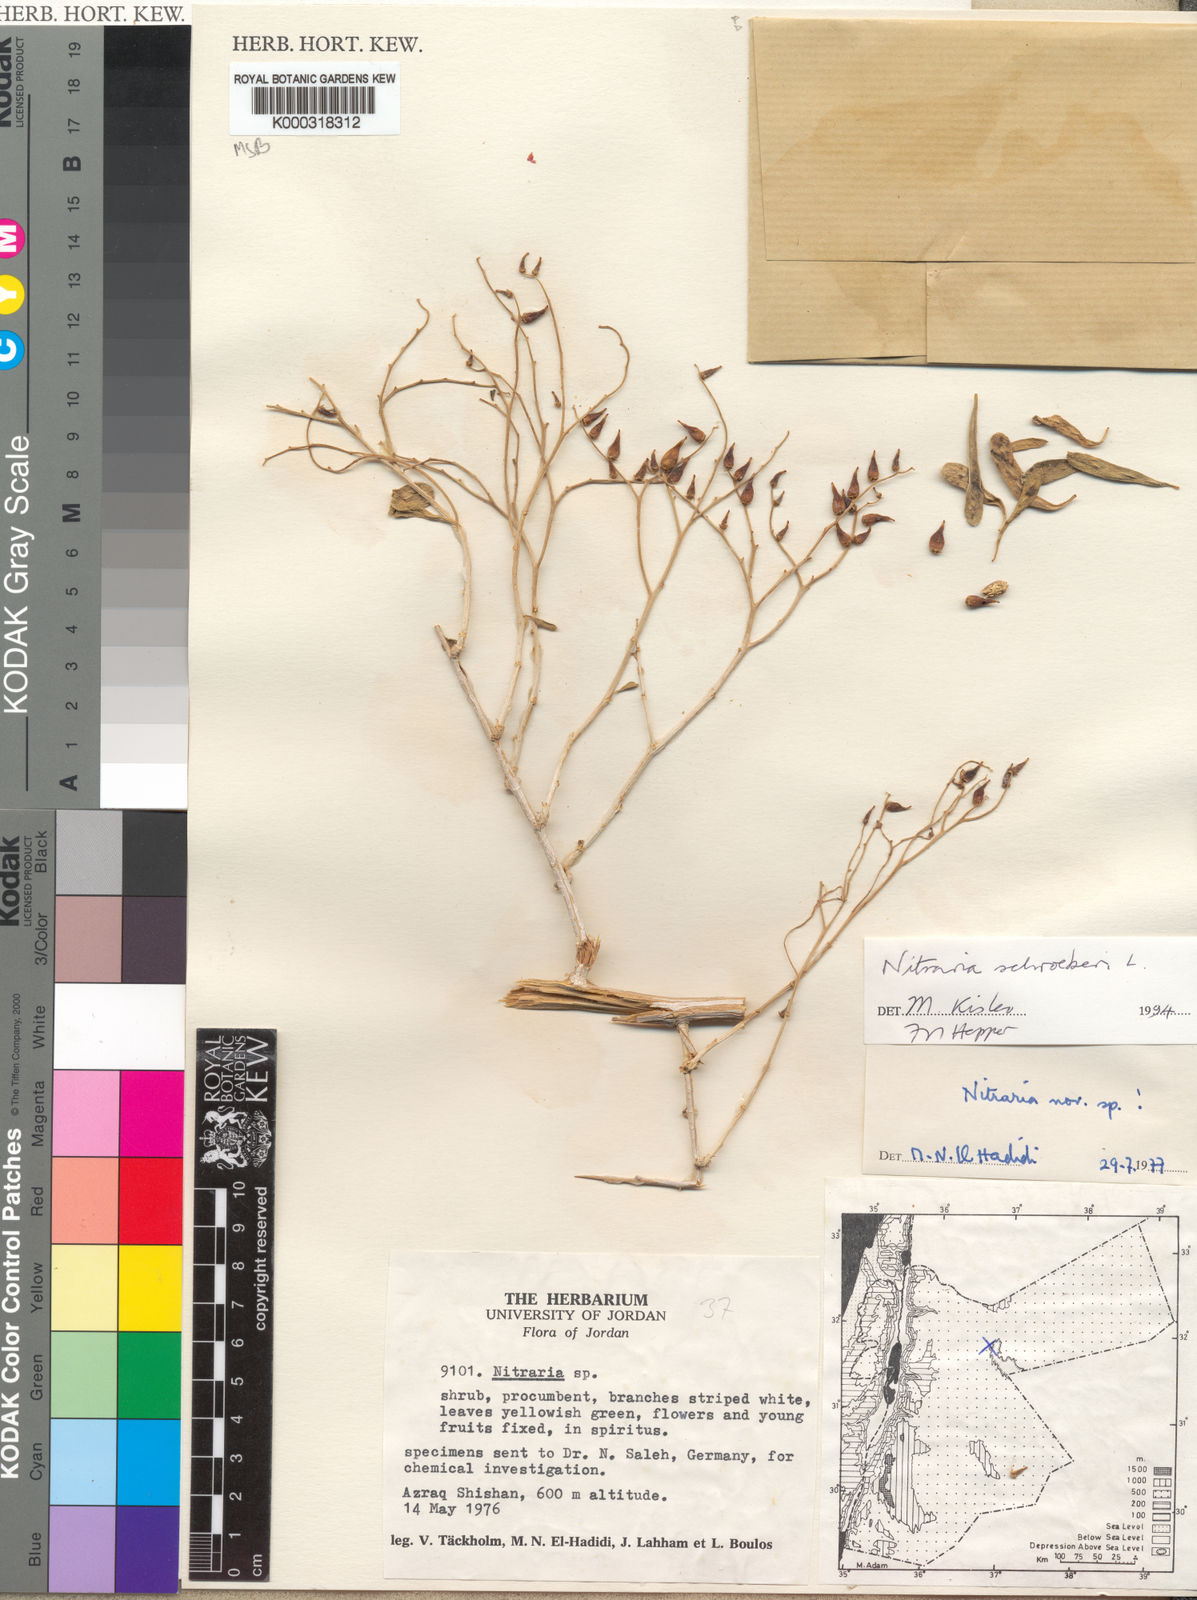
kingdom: Plantae
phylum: Tracheophyta
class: Magnoliopsida
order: Sapindales
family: Nitrariaceae
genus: Nitraria
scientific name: Nitraria schoberi
